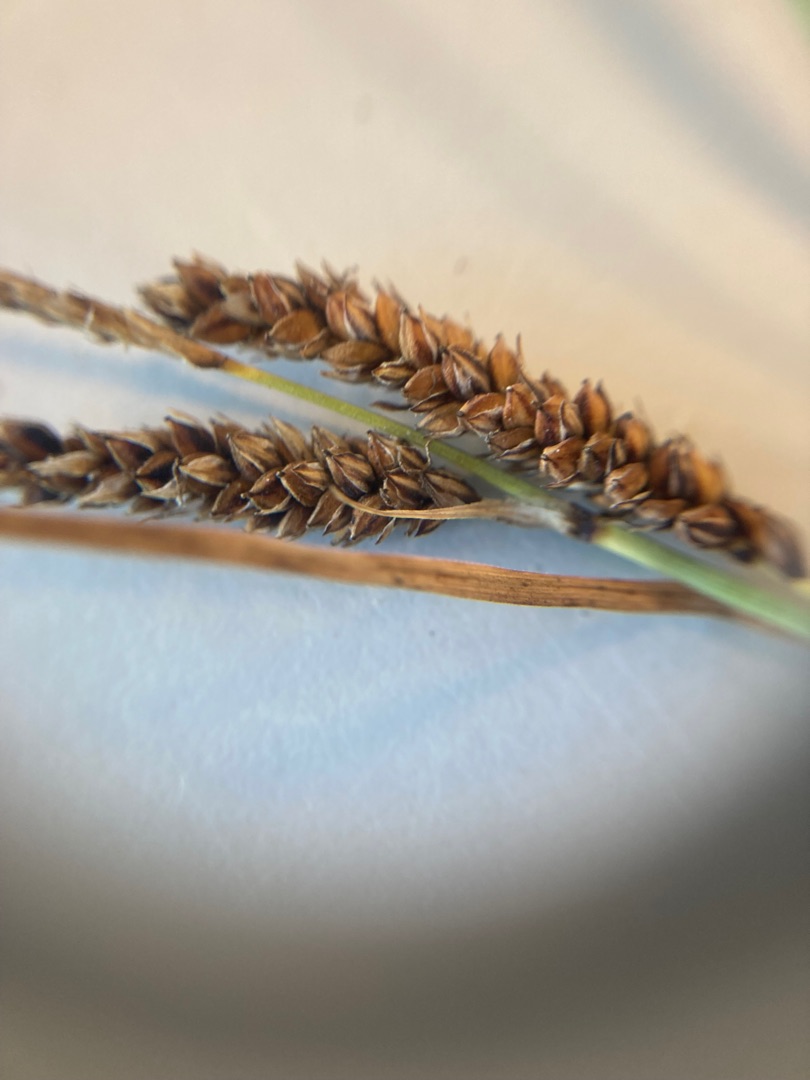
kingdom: Plantae
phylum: Tracheophyta
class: Liliopsida
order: Poales
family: Cyperaceae
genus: Carex
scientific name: Carex flacca
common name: Blågrøn star
